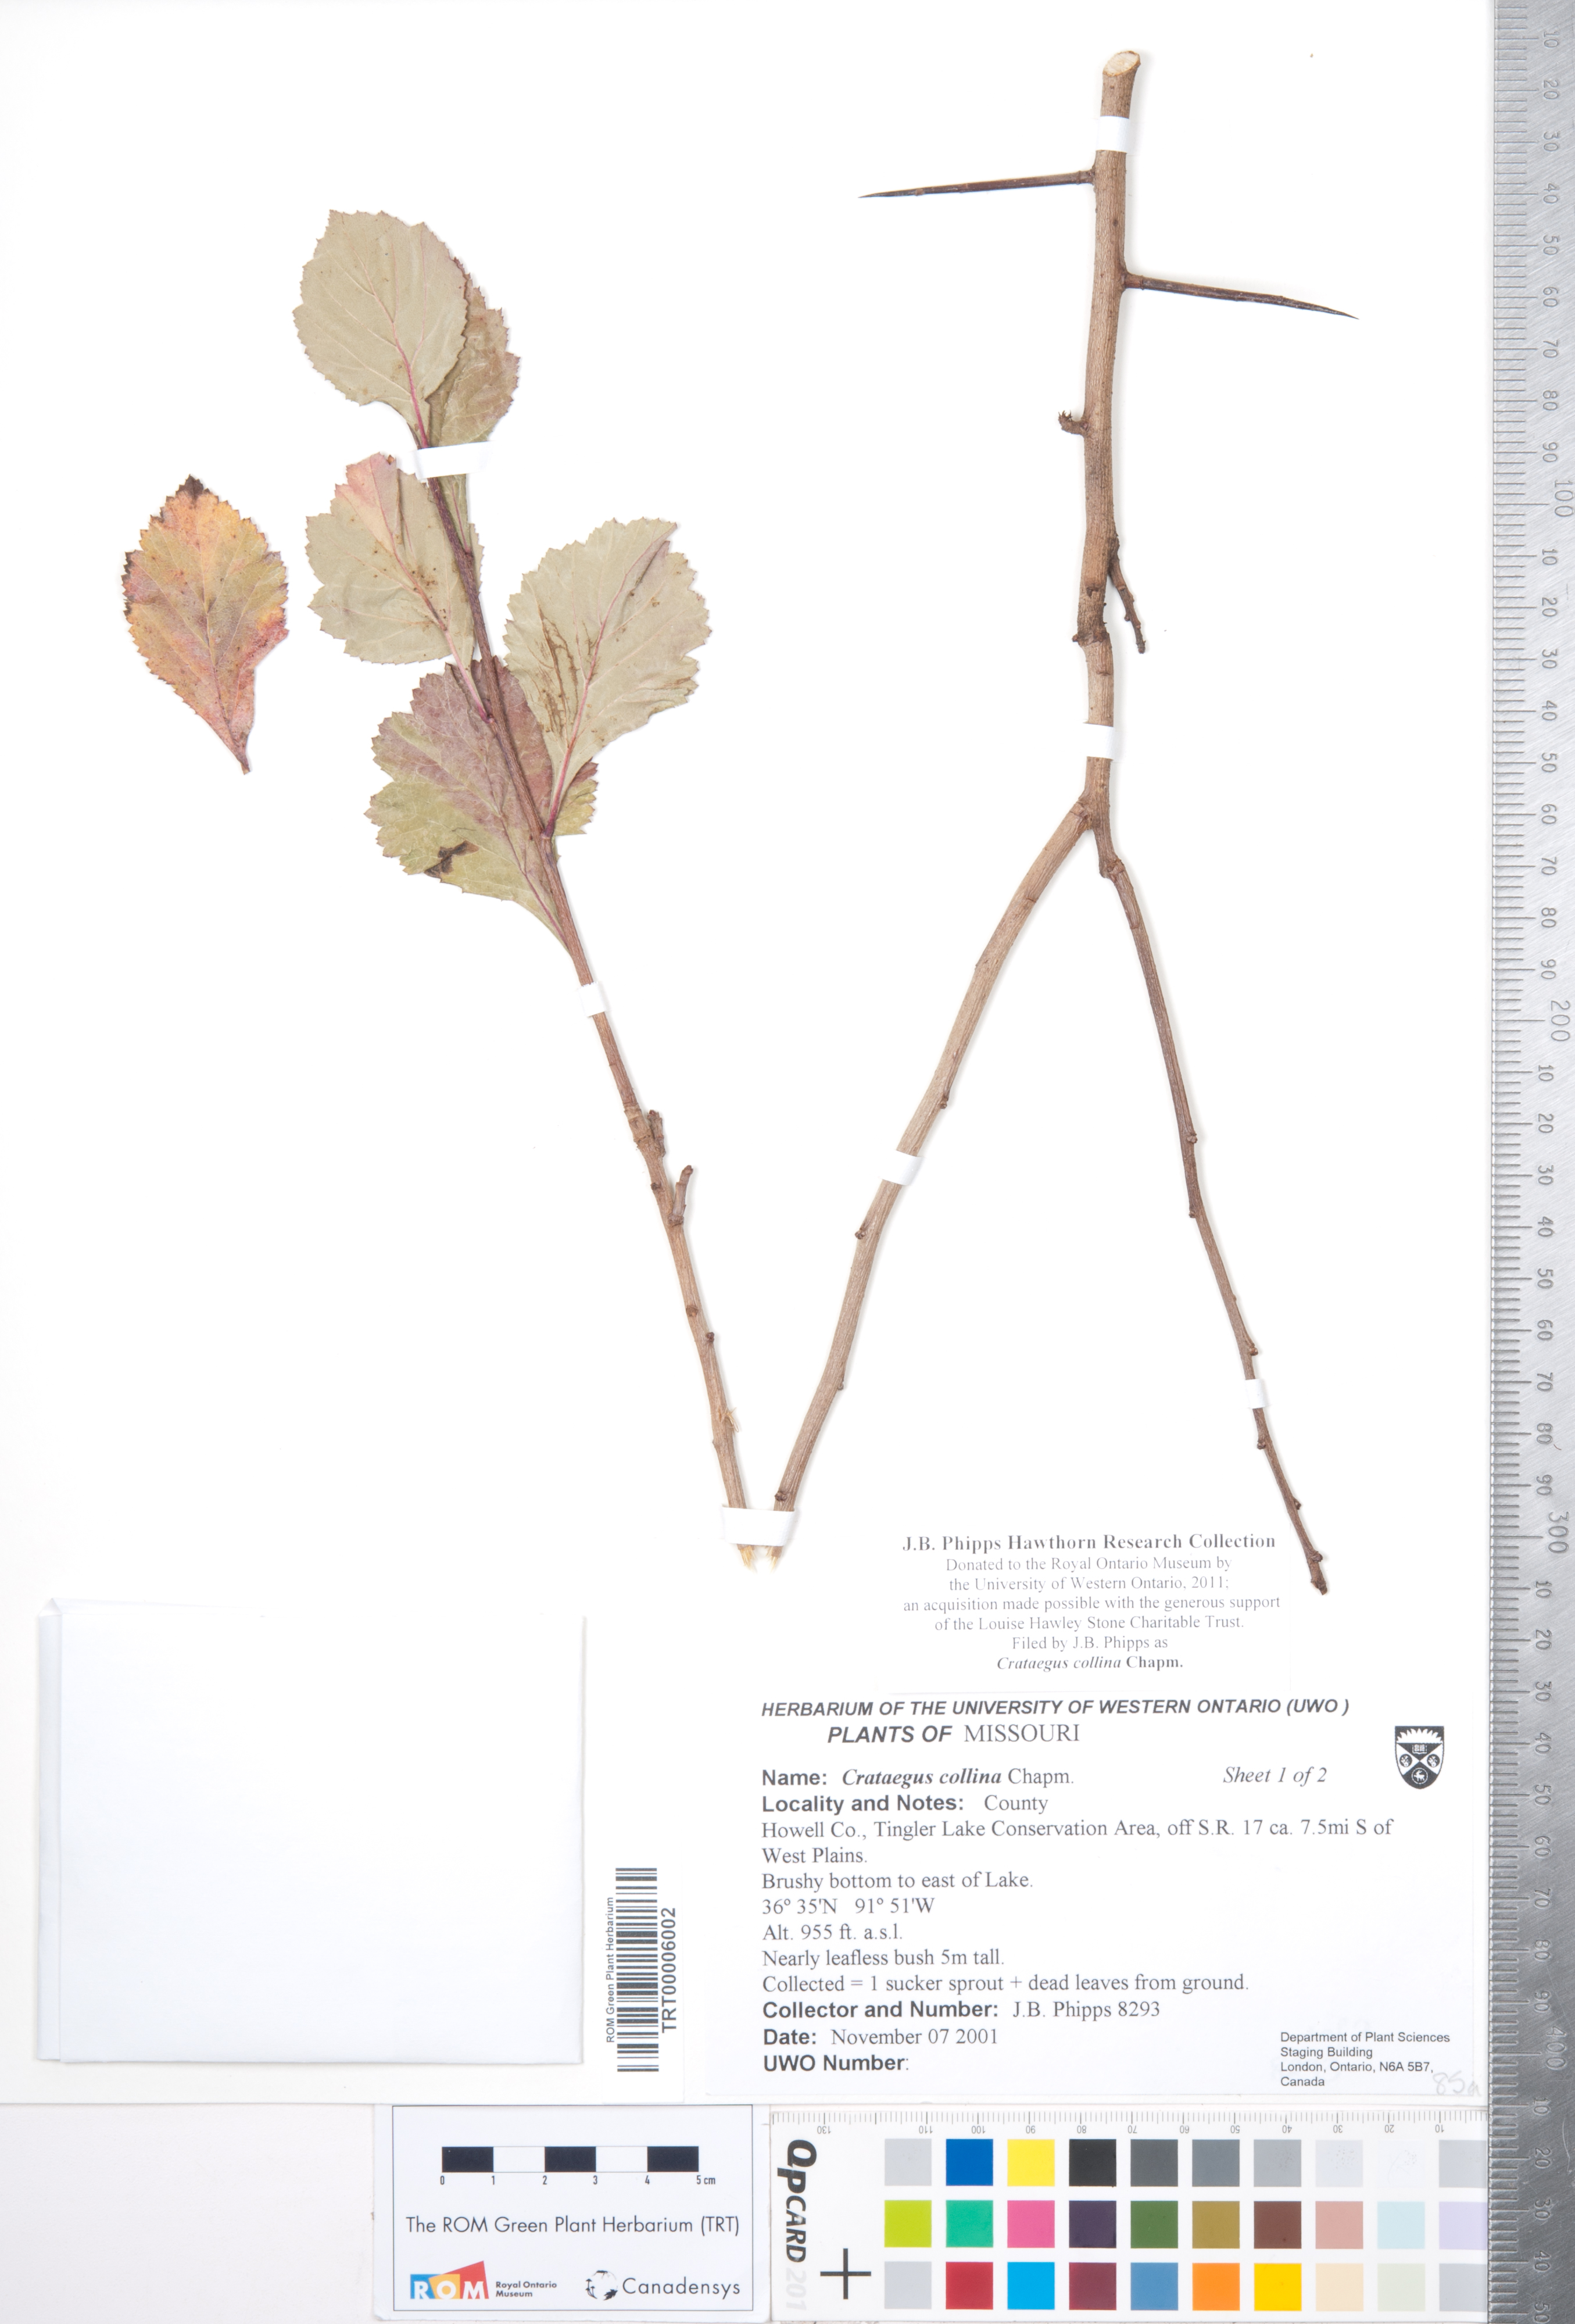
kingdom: Plantae
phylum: Tracheophyta
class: Magnoliopsida
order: Rosales
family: Rosaceae
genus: Crataegus
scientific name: Crataegus collina
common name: Hillside hawthorn
